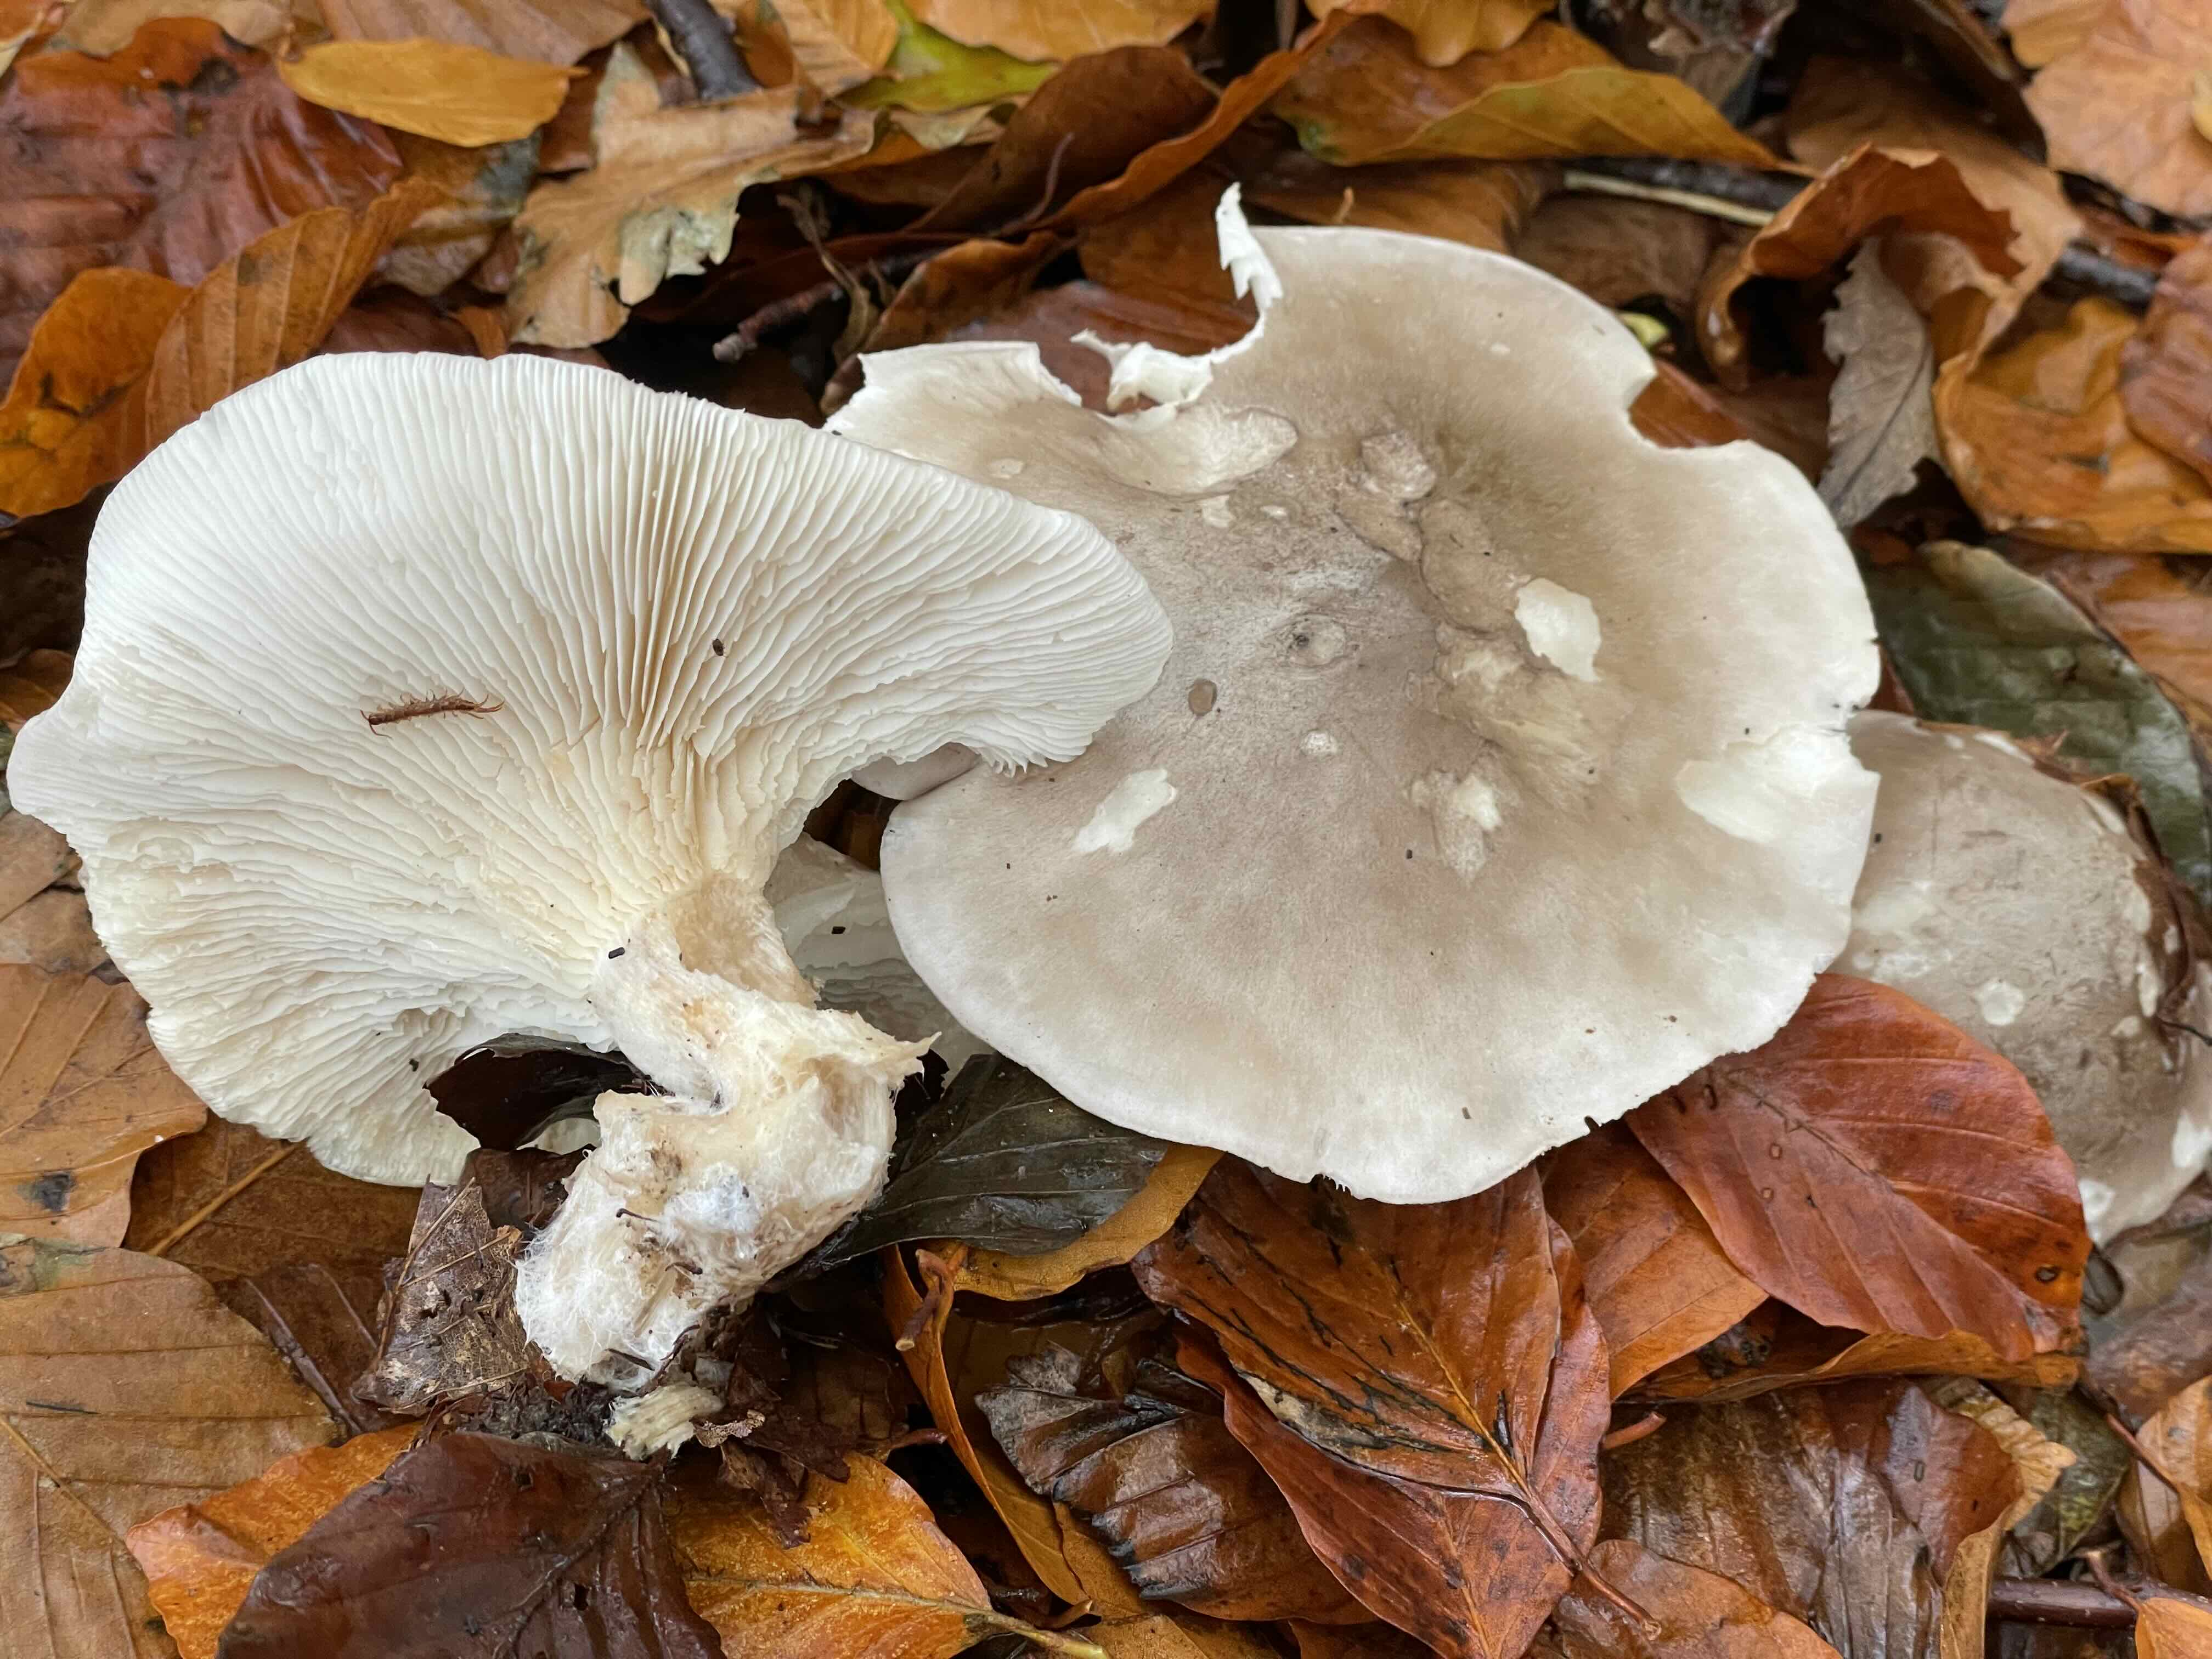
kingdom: Fungi
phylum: Basidiomycota
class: Agaricomycetes
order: Agaricales
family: Tricholomataceae
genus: Clitocybe
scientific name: Clitocybe nebularis
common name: tåge-tragthat
